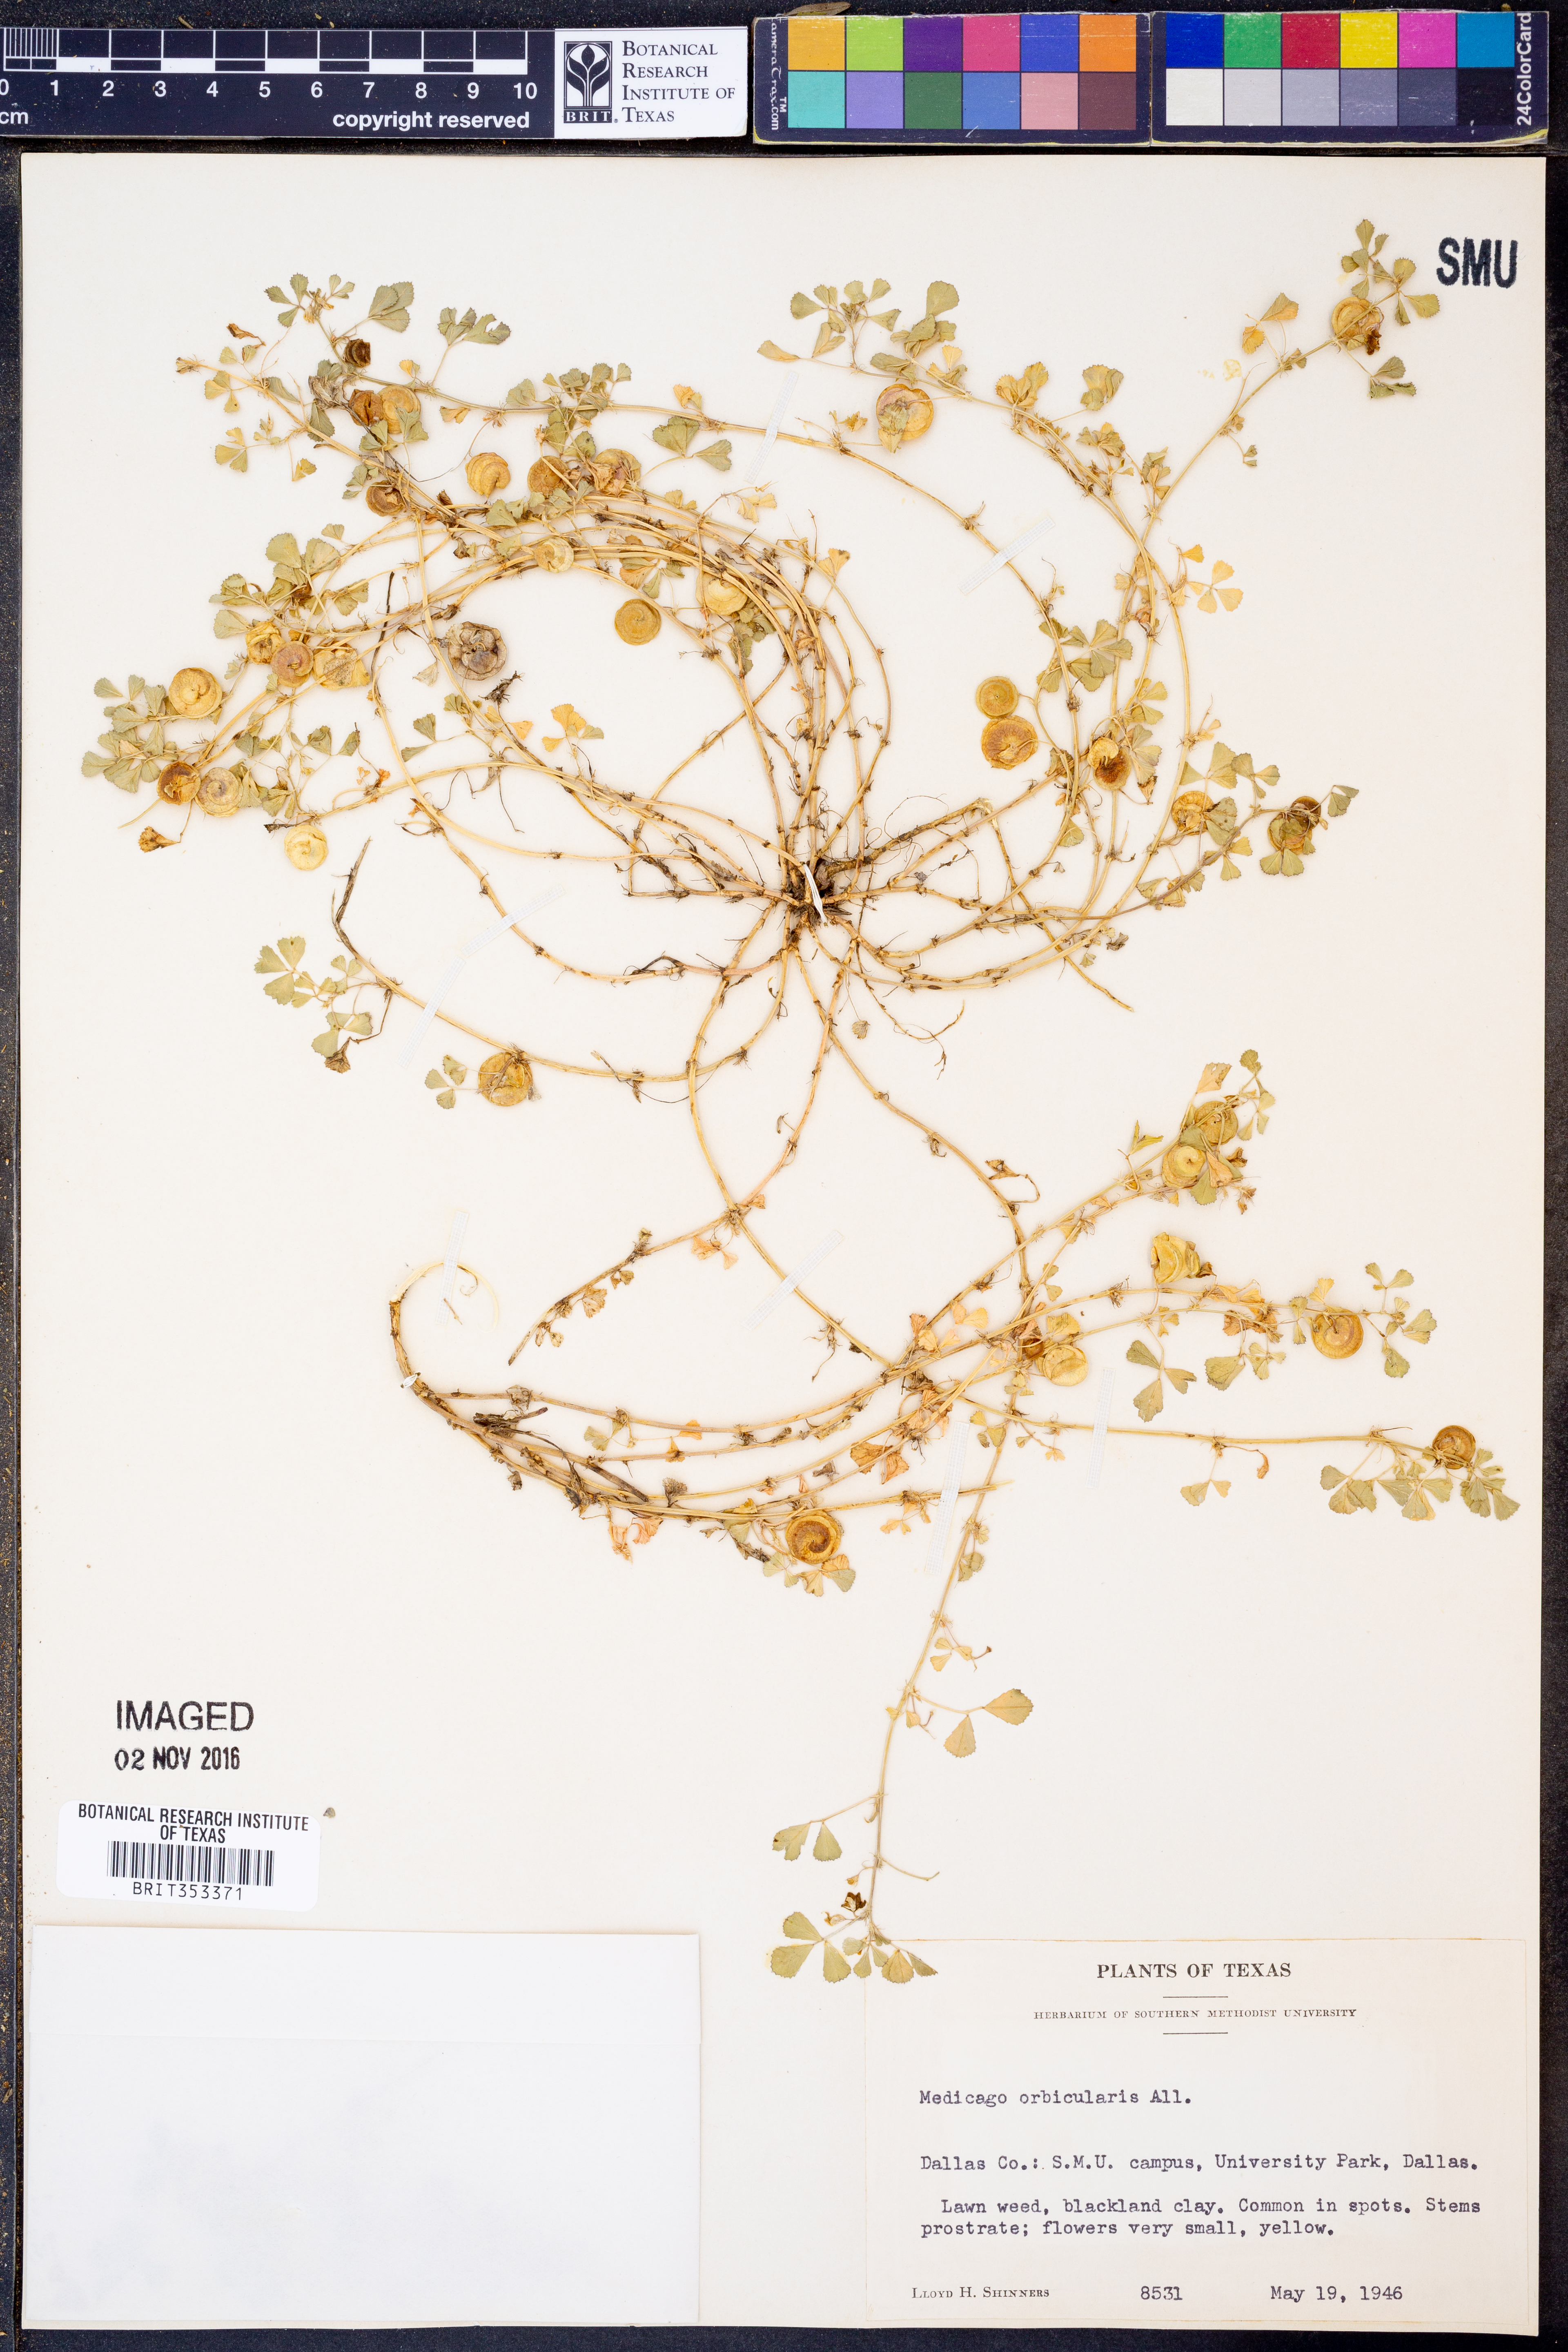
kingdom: Plantae
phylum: Tracheophyta
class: Magnoliopsida
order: Fabales
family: Fabaceae
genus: Medicago
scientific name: Medicago orbicularis
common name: Button medick
